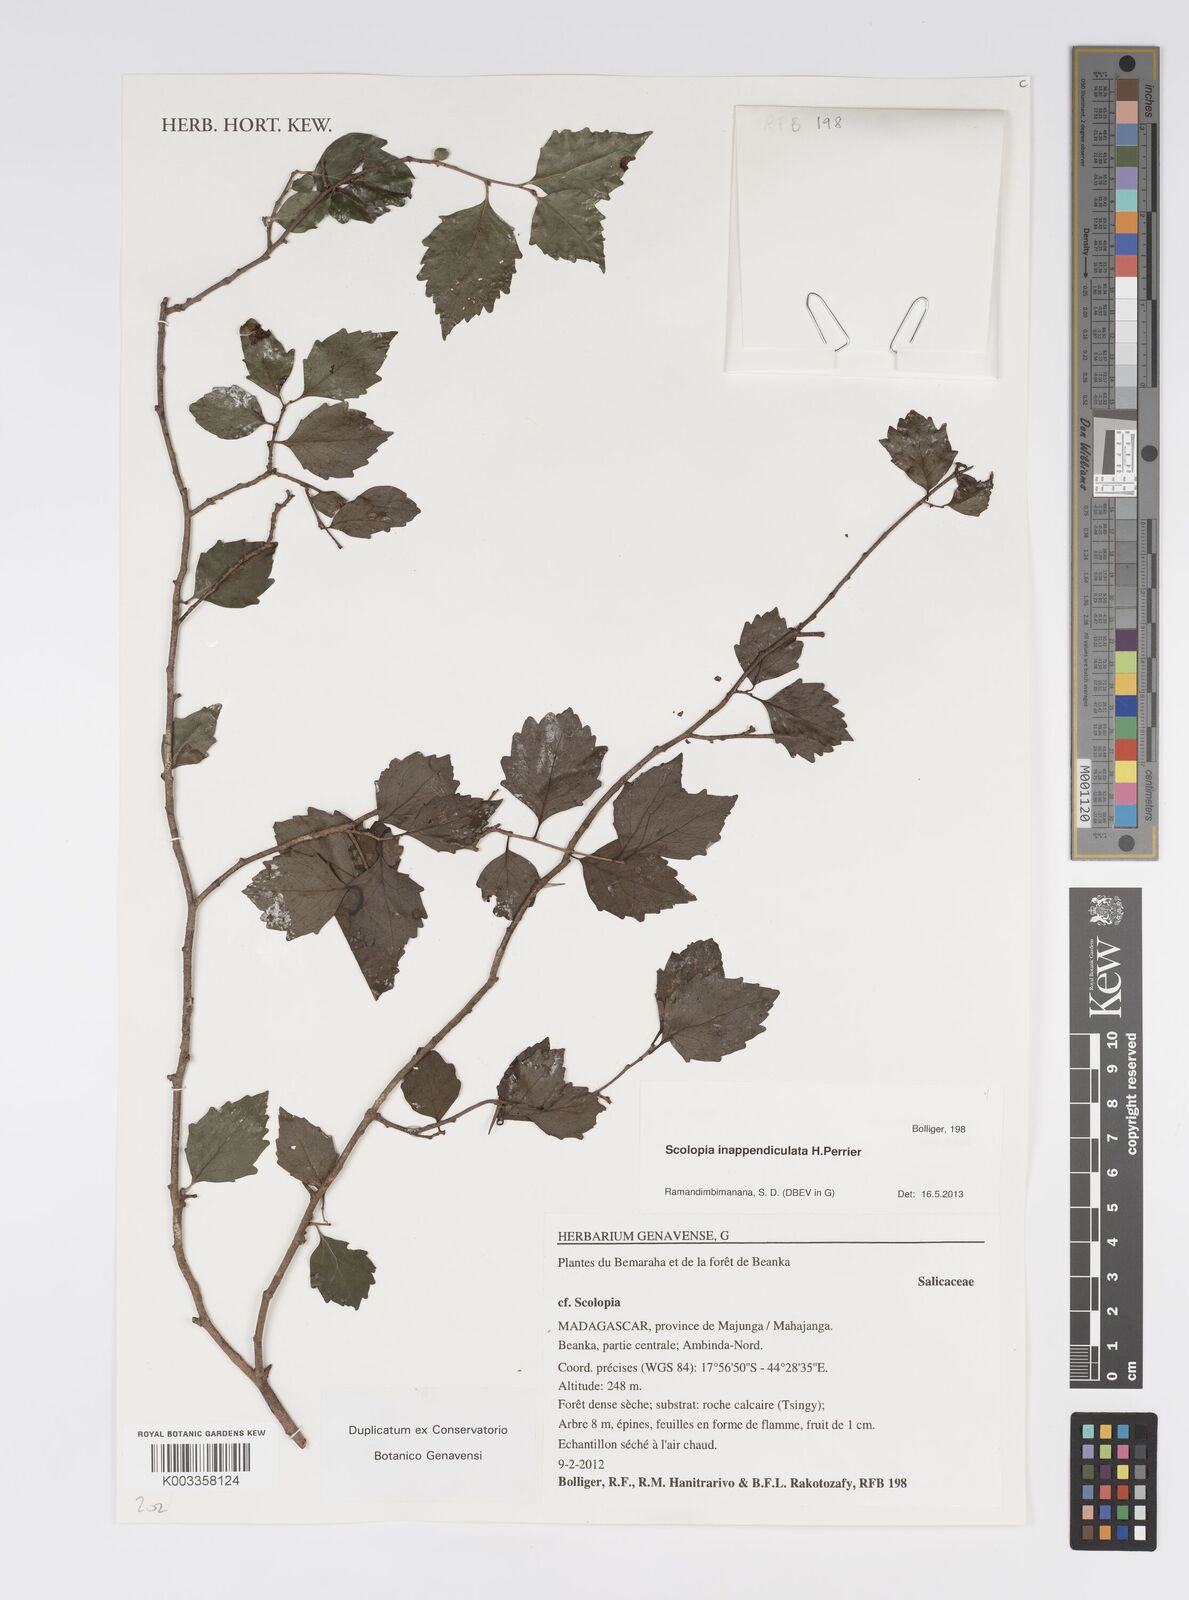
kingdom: Plantae
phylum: Tracheophyta
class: Magnoliopsida
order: Malpighiales
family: Salicaceae
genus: Scolopia
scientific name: Scolopia
